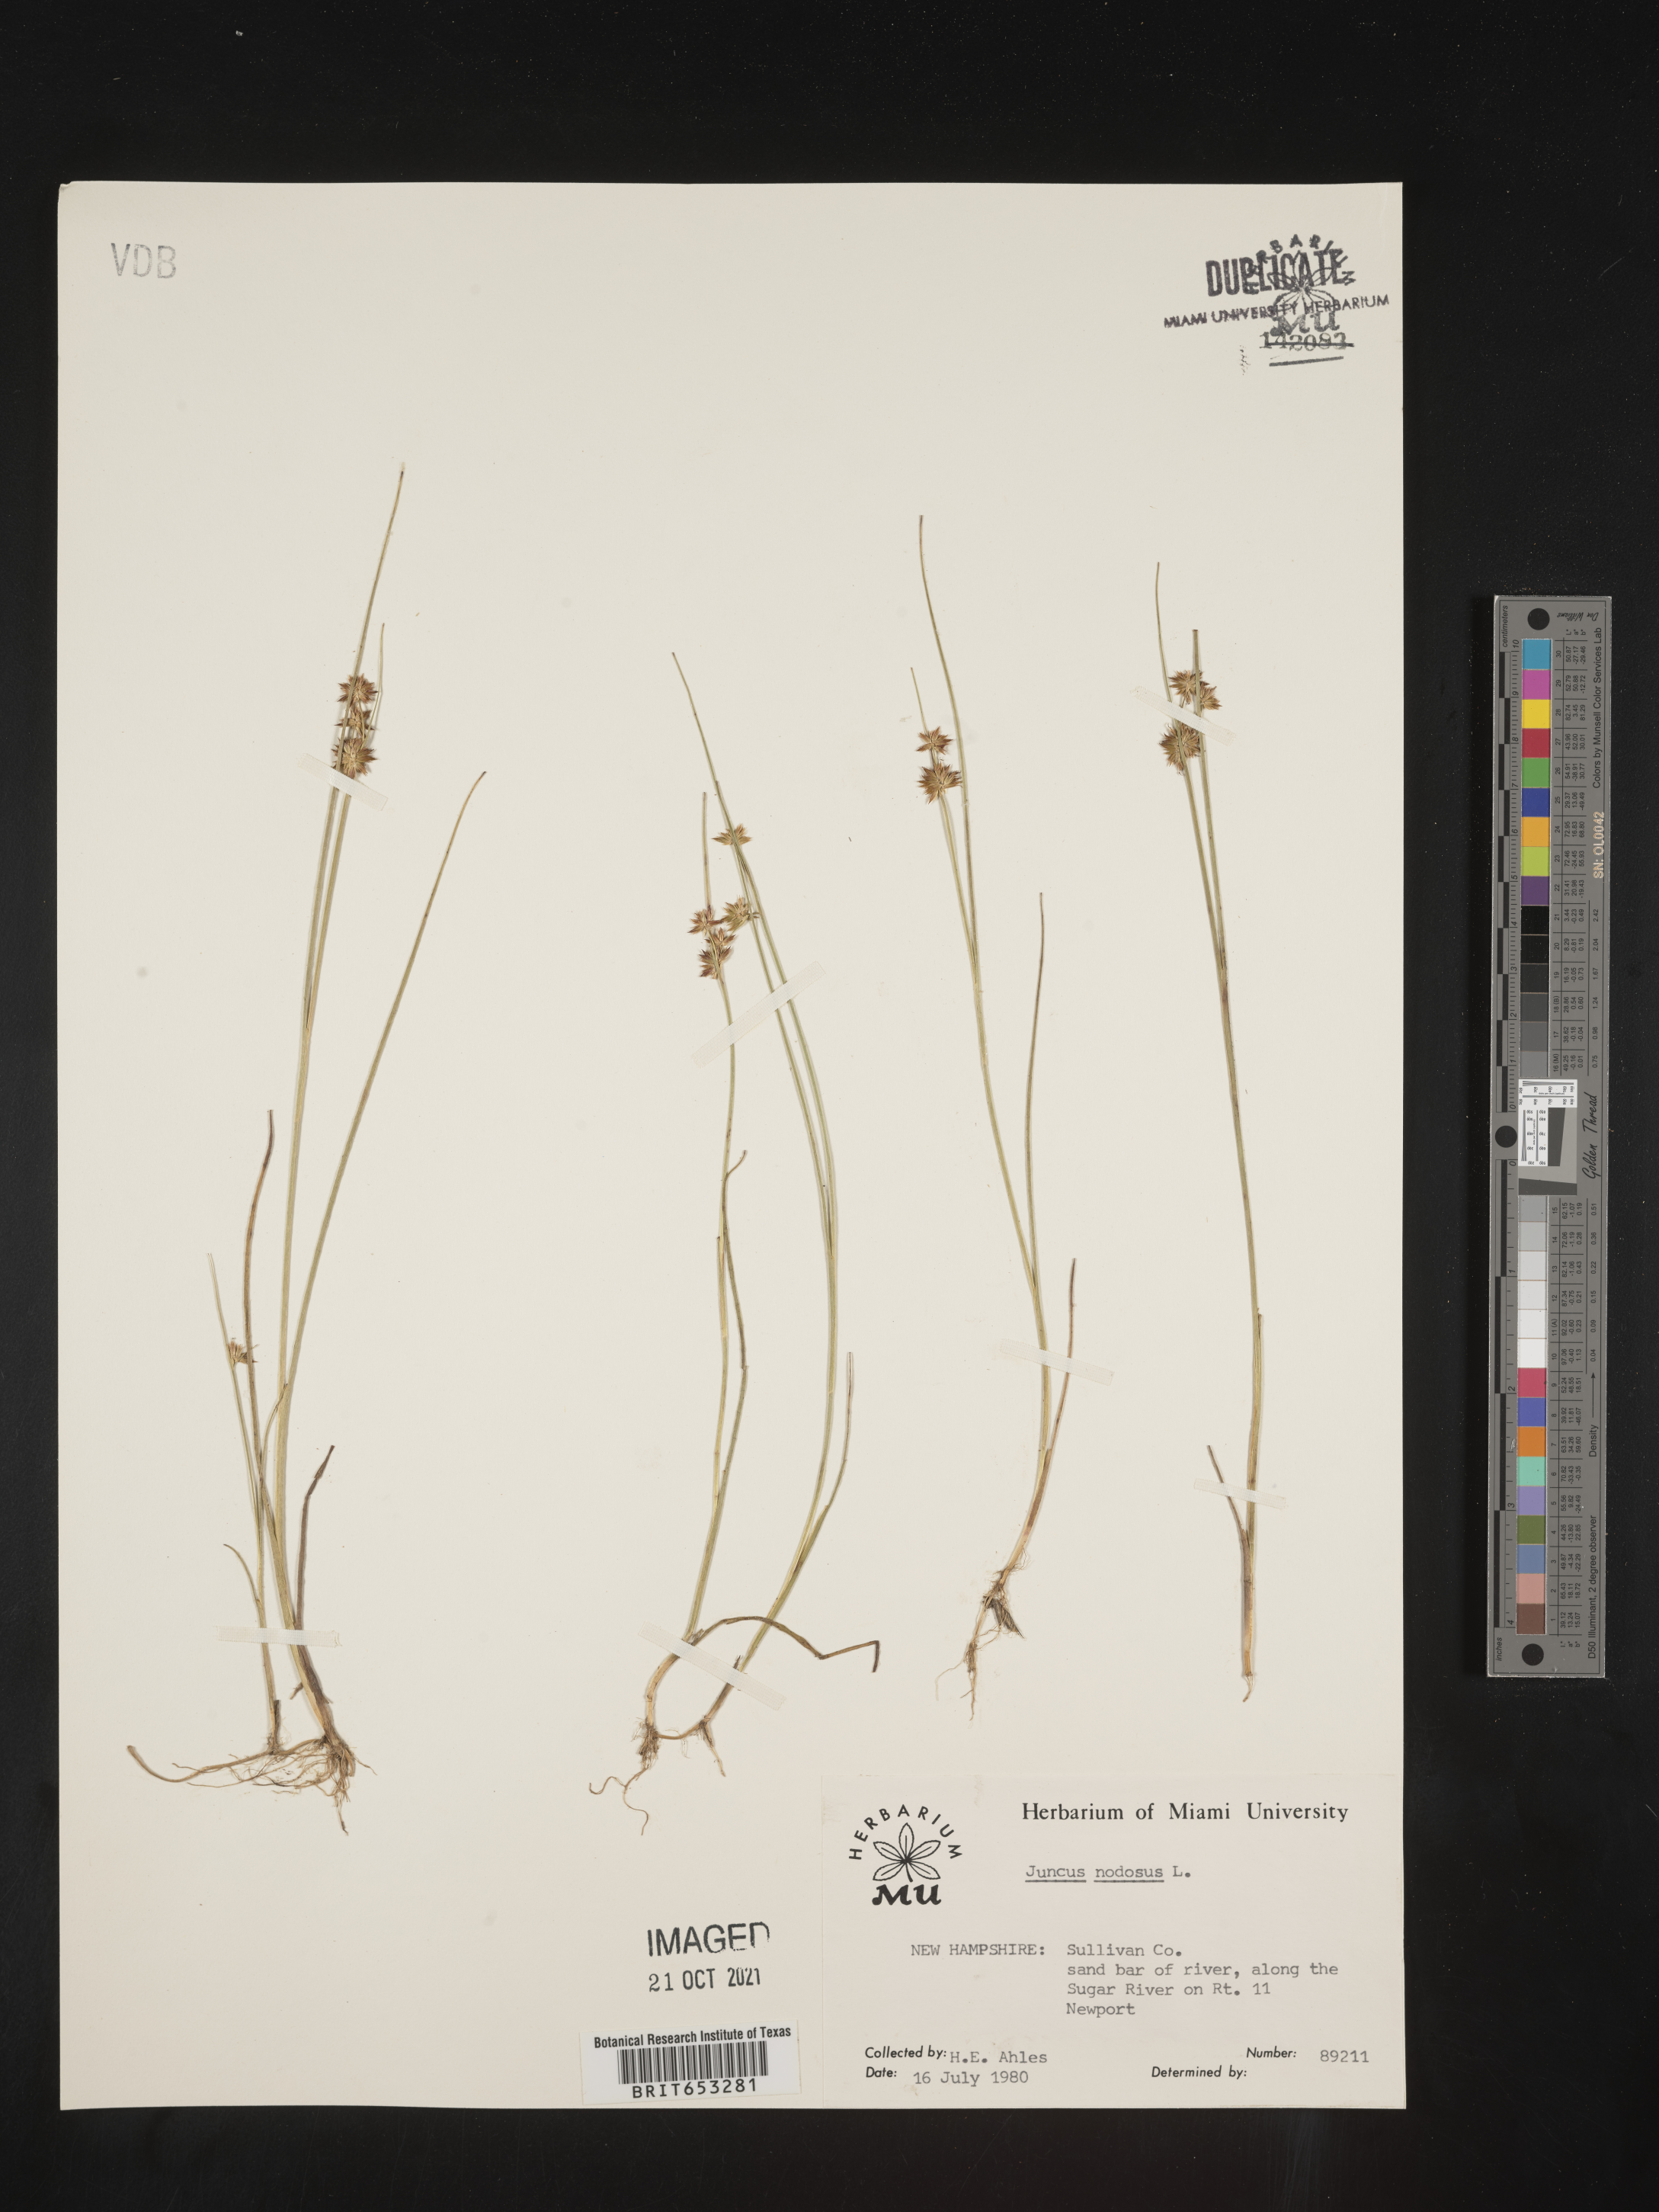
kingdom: Plantae
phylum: Tracheophyta
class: Liliopsida
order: Poales
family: Juncaceae
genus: Juncus
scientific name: Juncus nodosus
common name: Knotted rush
